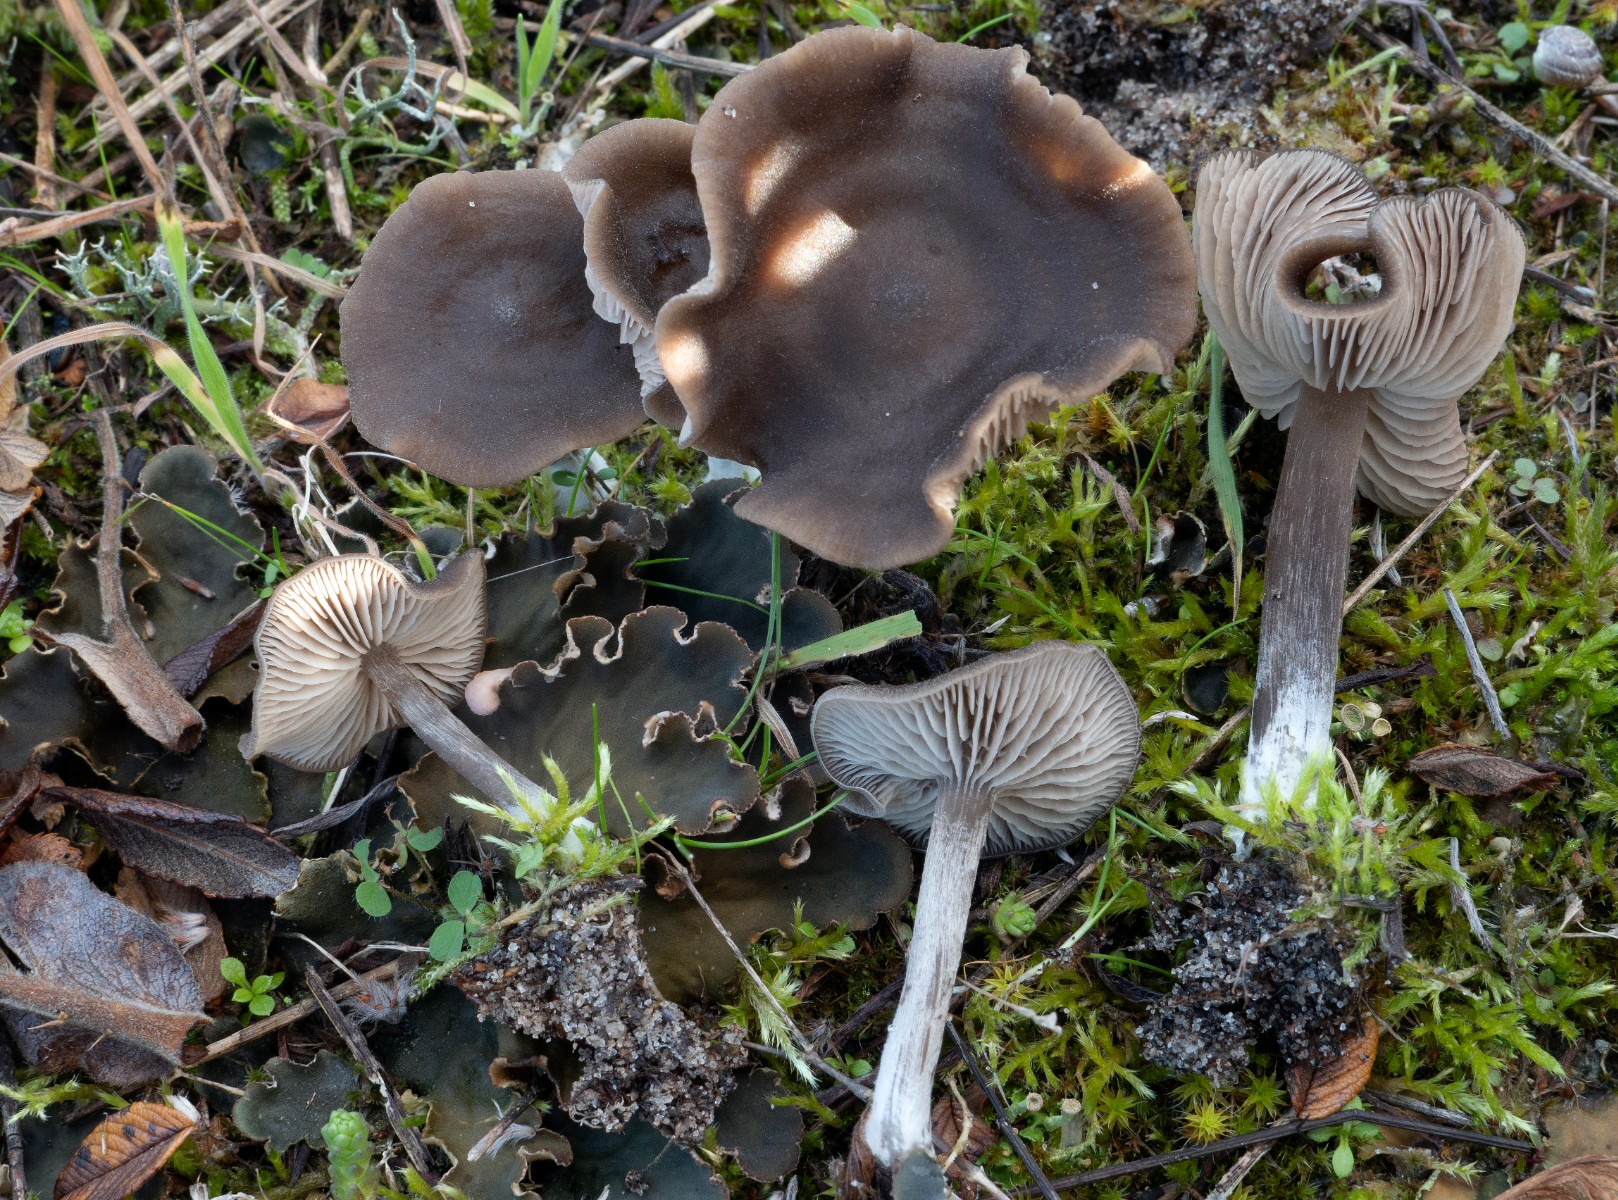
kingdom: Fungi
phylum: Basidiomycota
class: Agaricomycetes
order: Agaricales
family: Entolomataceae
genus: Entoloma
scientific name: Entoloma vindobonense
